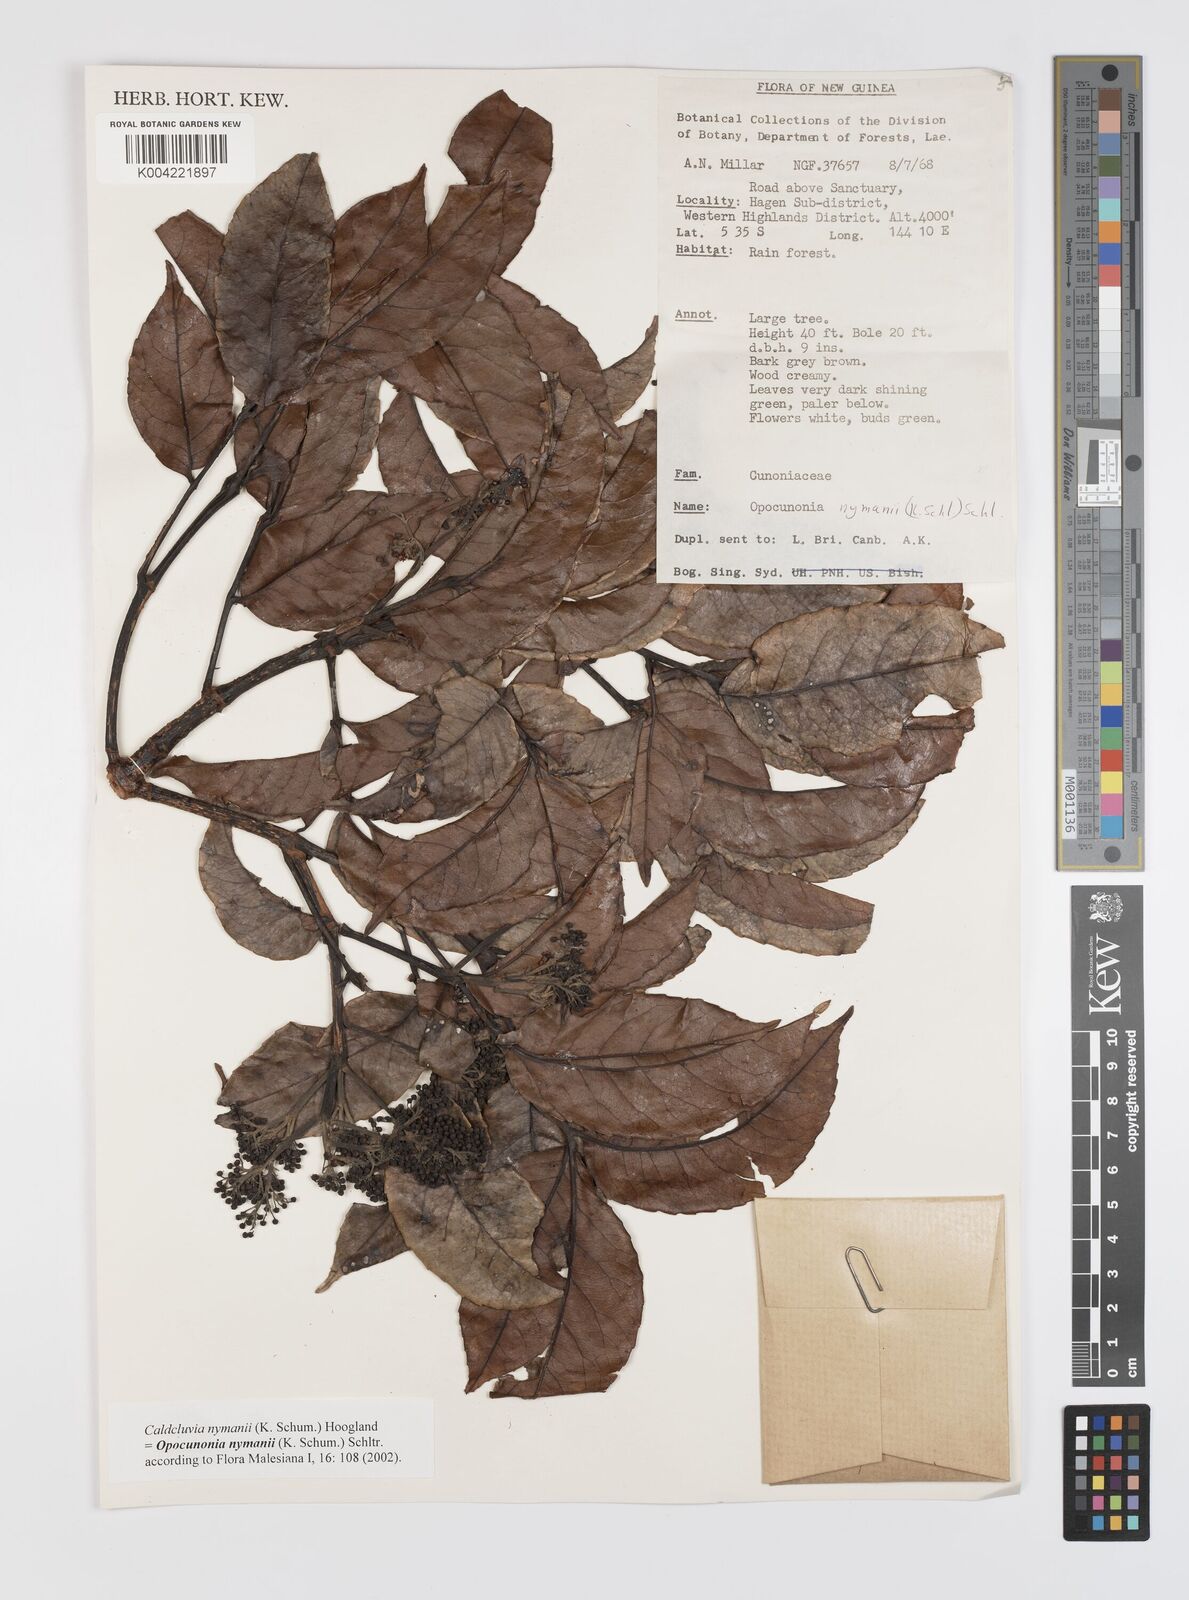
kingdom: Plantae
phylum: Tracheophyta
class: Magnoliopsida
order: Oxalidales
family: Cunoniaceae
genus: Opocunonia
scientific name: Opocunonia nymanii
